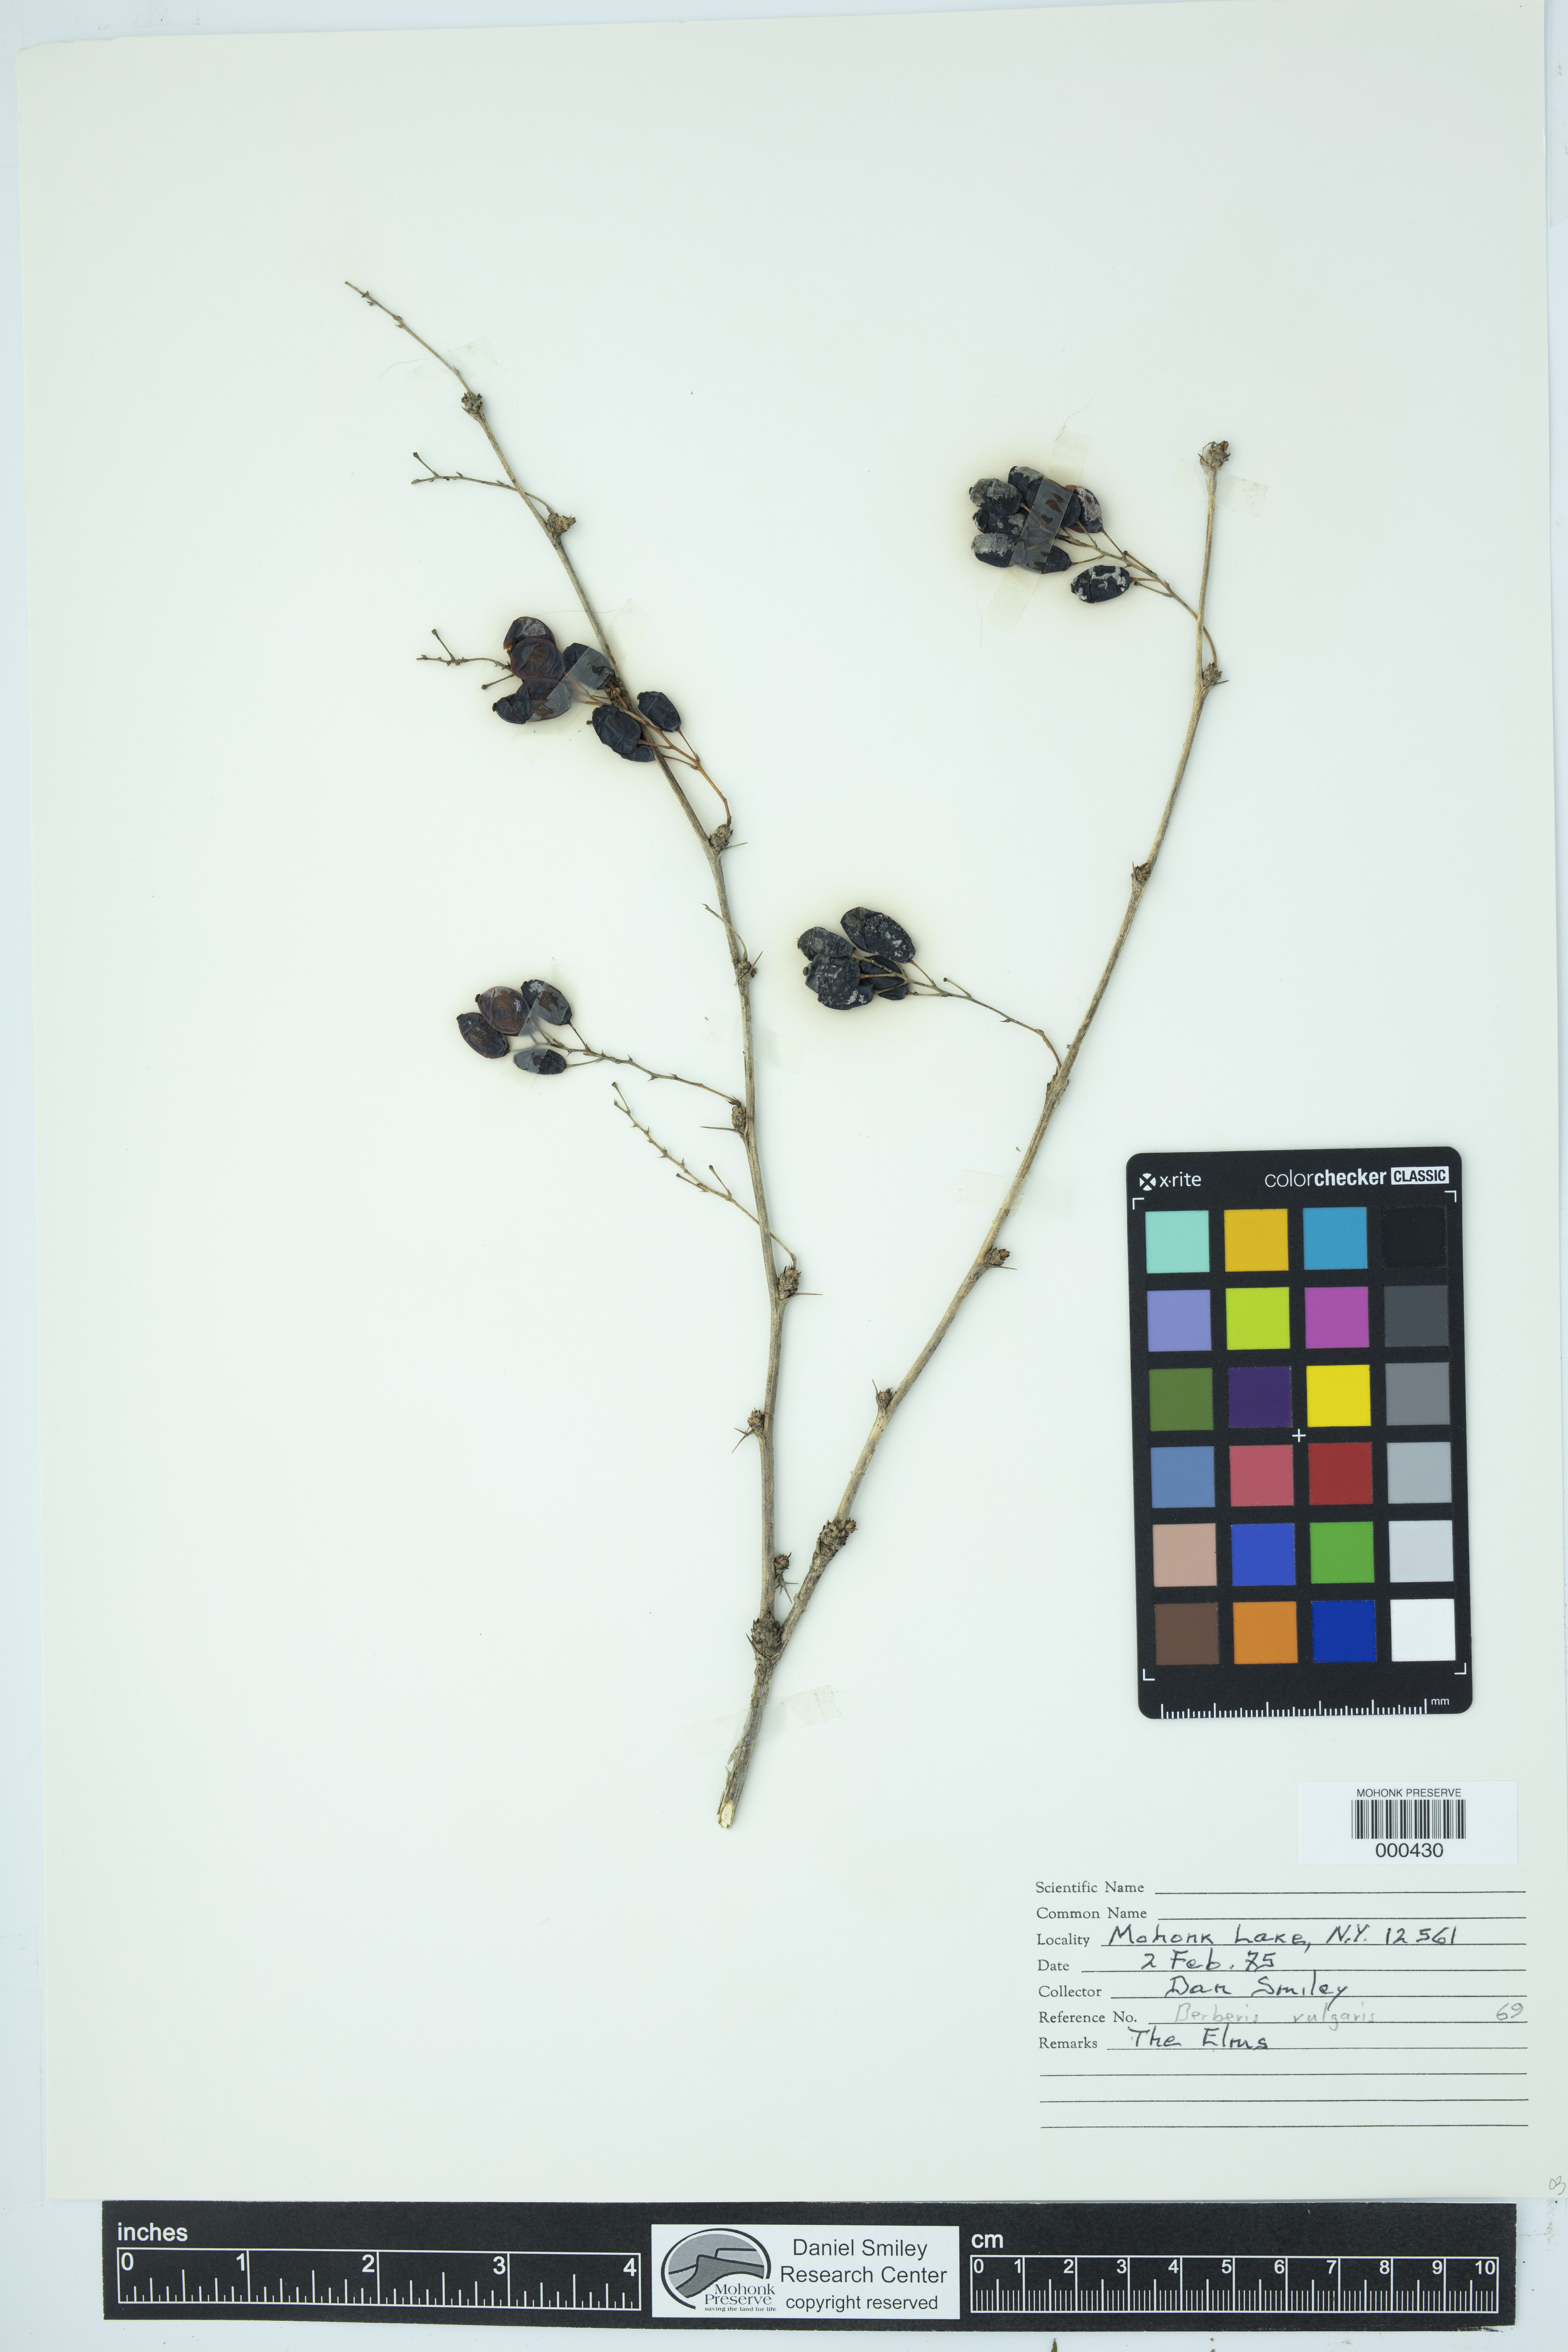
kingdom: Plantae
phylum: Tracheophyta
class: Magnoliopsida
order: Ranunculales
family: Berberidaceae
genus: Berberis
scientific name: Berberis vulgaris
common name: Barberry
